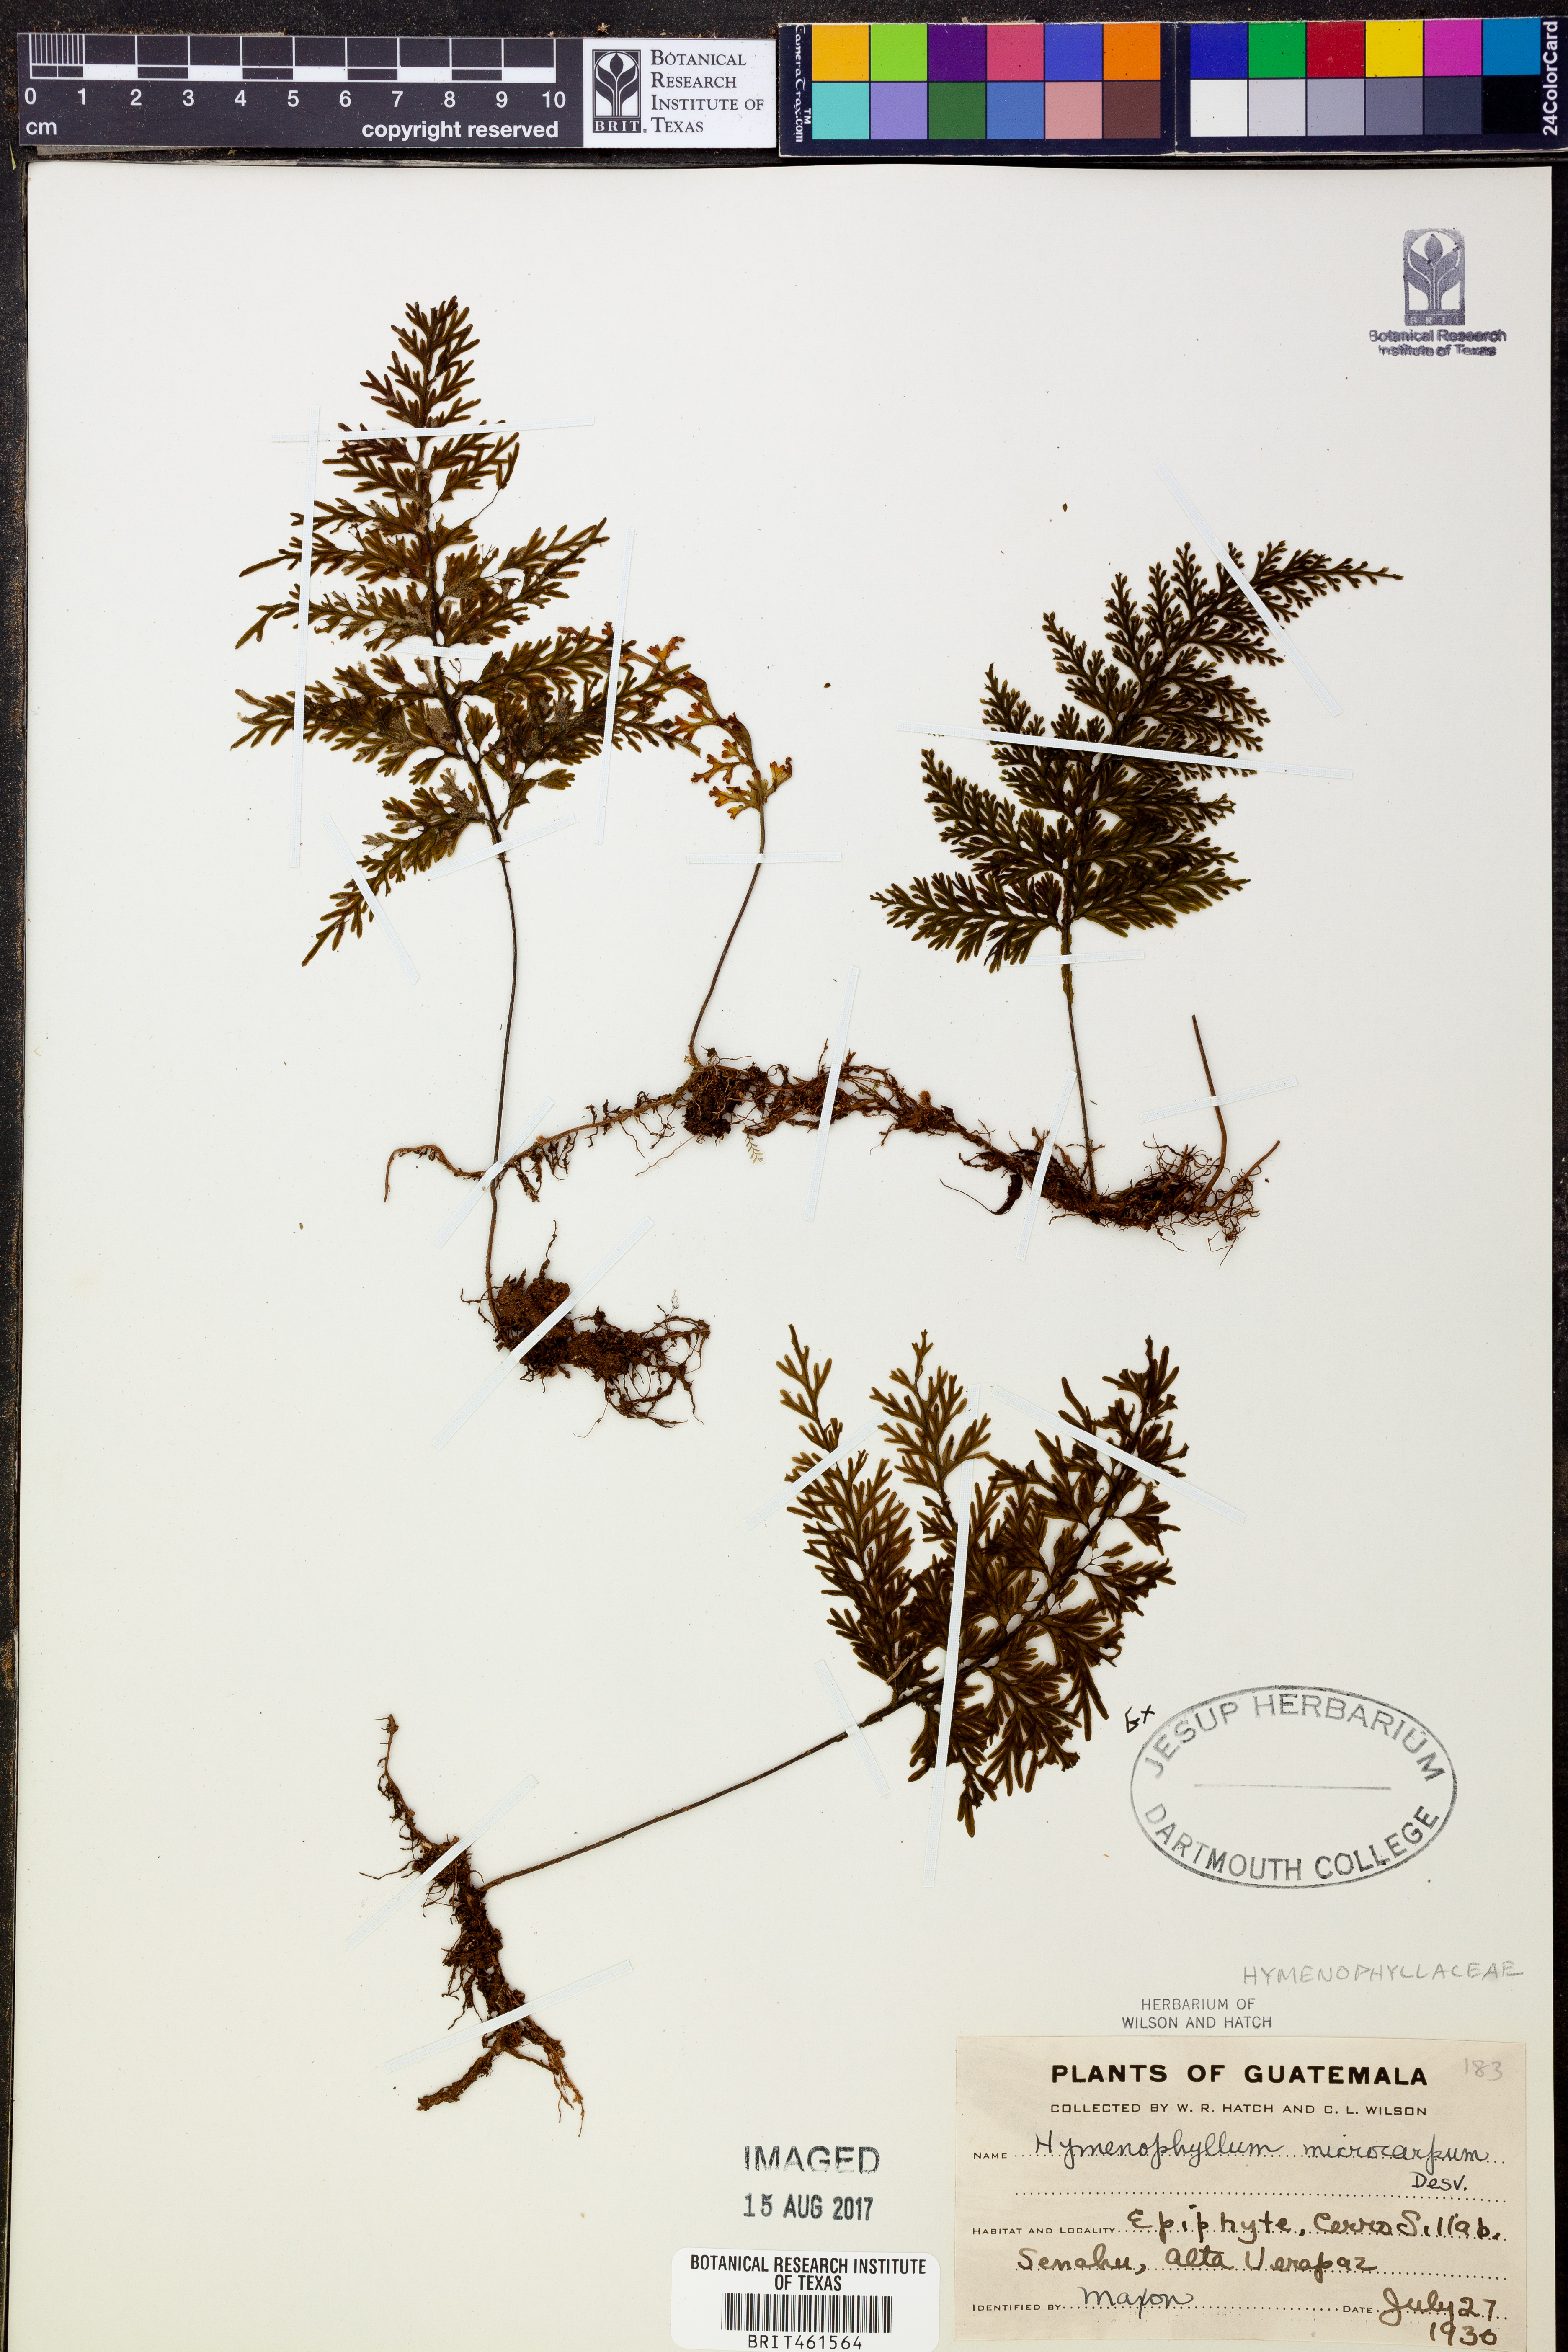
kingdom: Plantae
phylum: Tracheophyta
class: Polypodiopsida
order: Hymenophyllales
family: Hymenophyllaceae
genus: Hymenophyllum
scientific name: Hymenophyllum microcarpum
